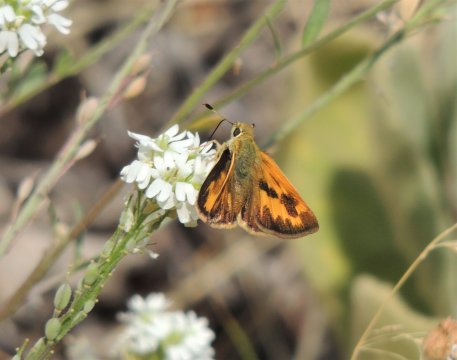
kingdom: Animalia
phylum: Arthropoda
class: Insecta
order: Lepidoptera
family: Hesperiidae
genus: Hesperia
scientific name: Hesperia juba
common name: Juba Skipper
